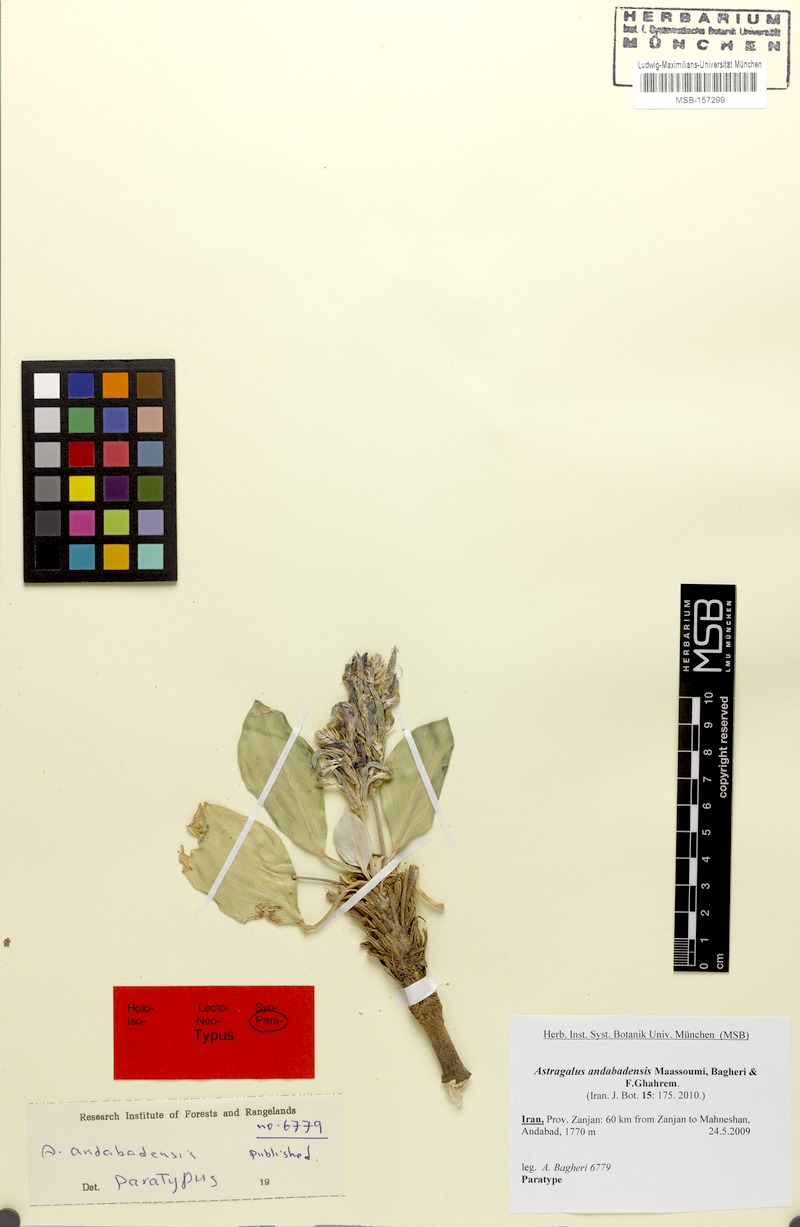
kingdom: Plantae
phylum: Tracheophyta
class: Magnoliopsida
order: Fabales
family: Fabaceae
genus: Astragalus
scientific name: Astragalus andabaddensis
